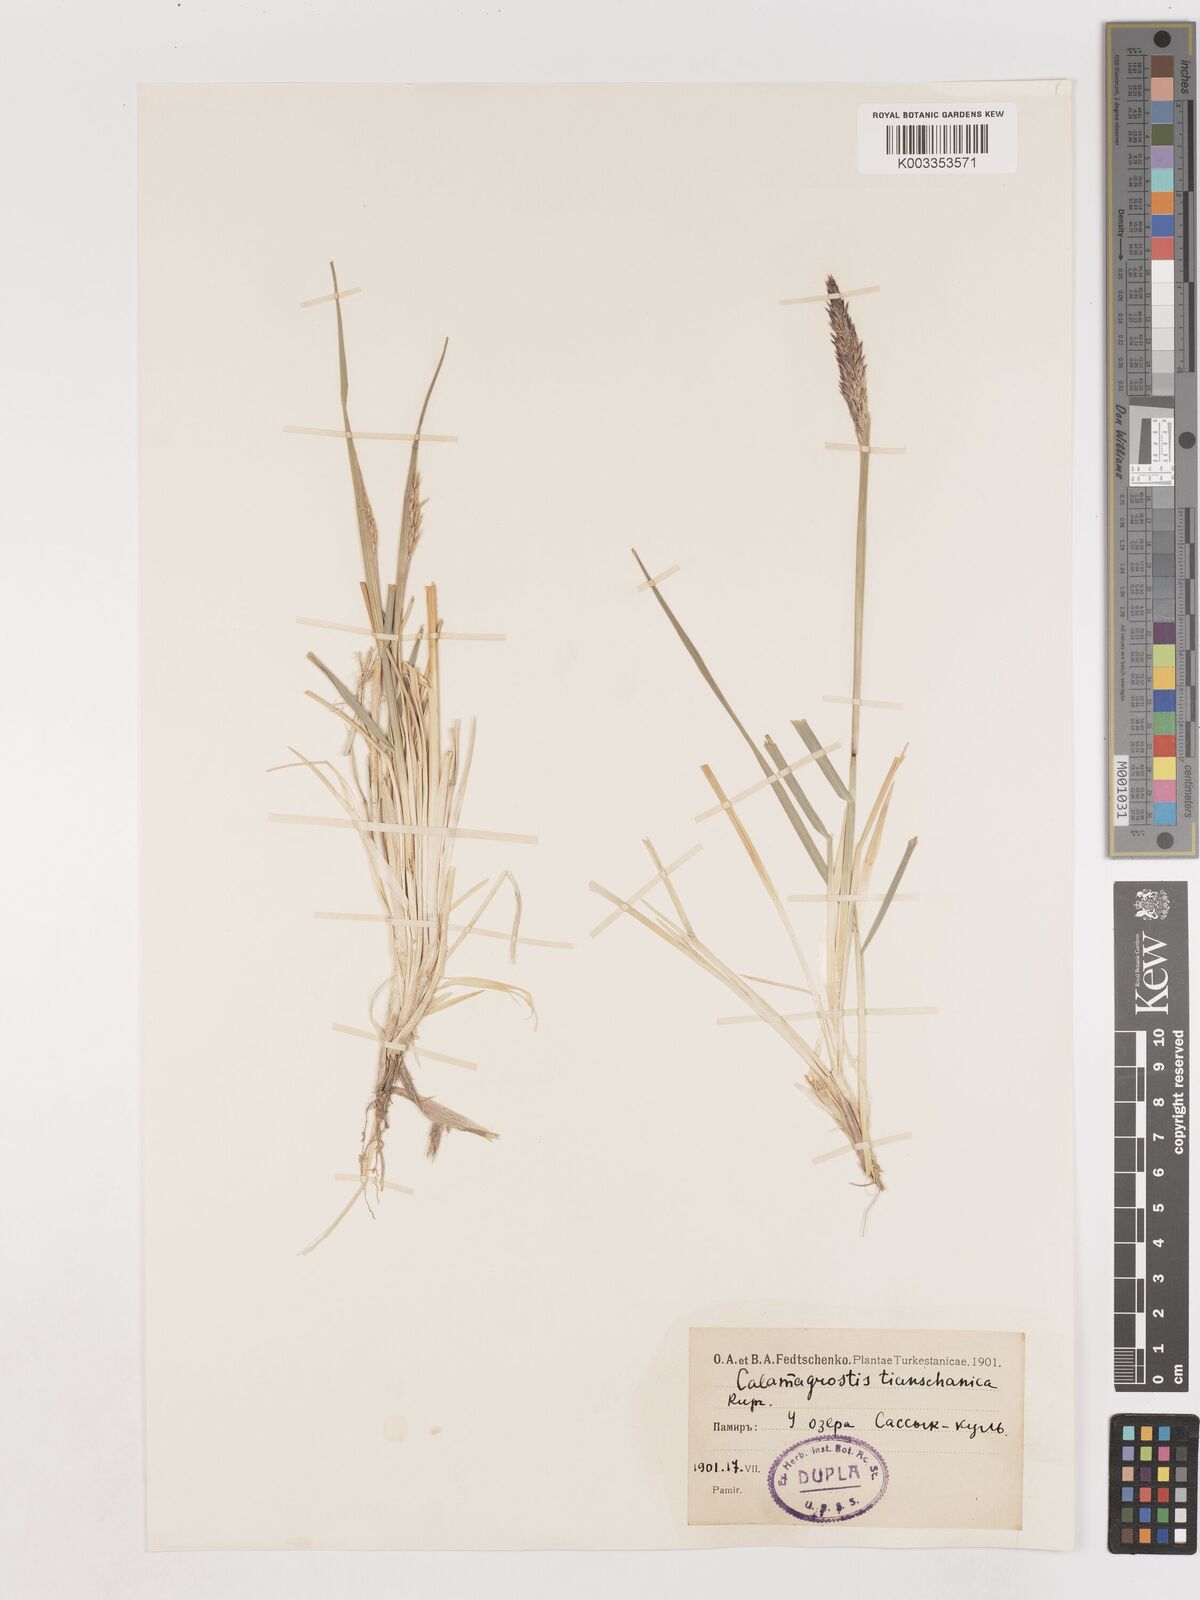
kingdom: Plantae
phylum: Tracheophyta
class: Liliopsida
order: Poales
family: Poaceae
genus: Calamagrostis
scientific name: Calamagrostis tianschanica
